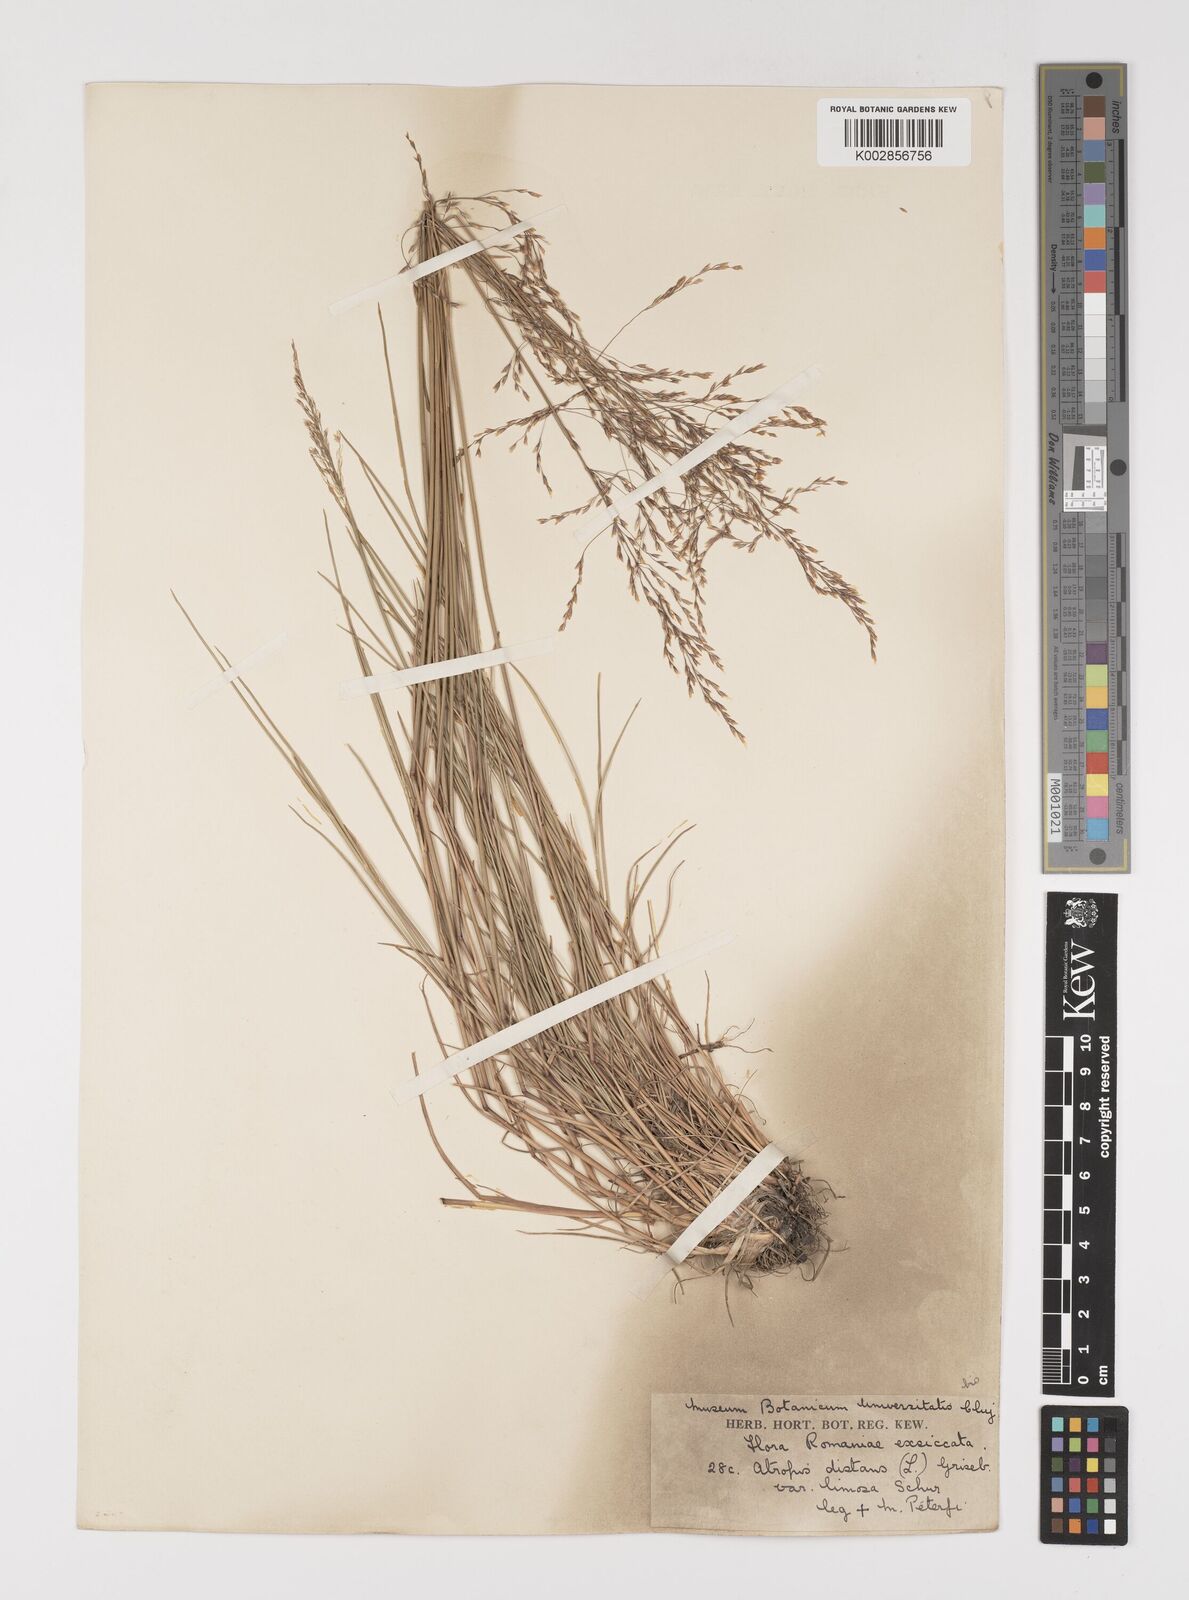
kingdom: Plantae
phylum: Tracheophyta
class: Liliopsida
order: Poales
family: Poaceae
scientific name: Poaceae
